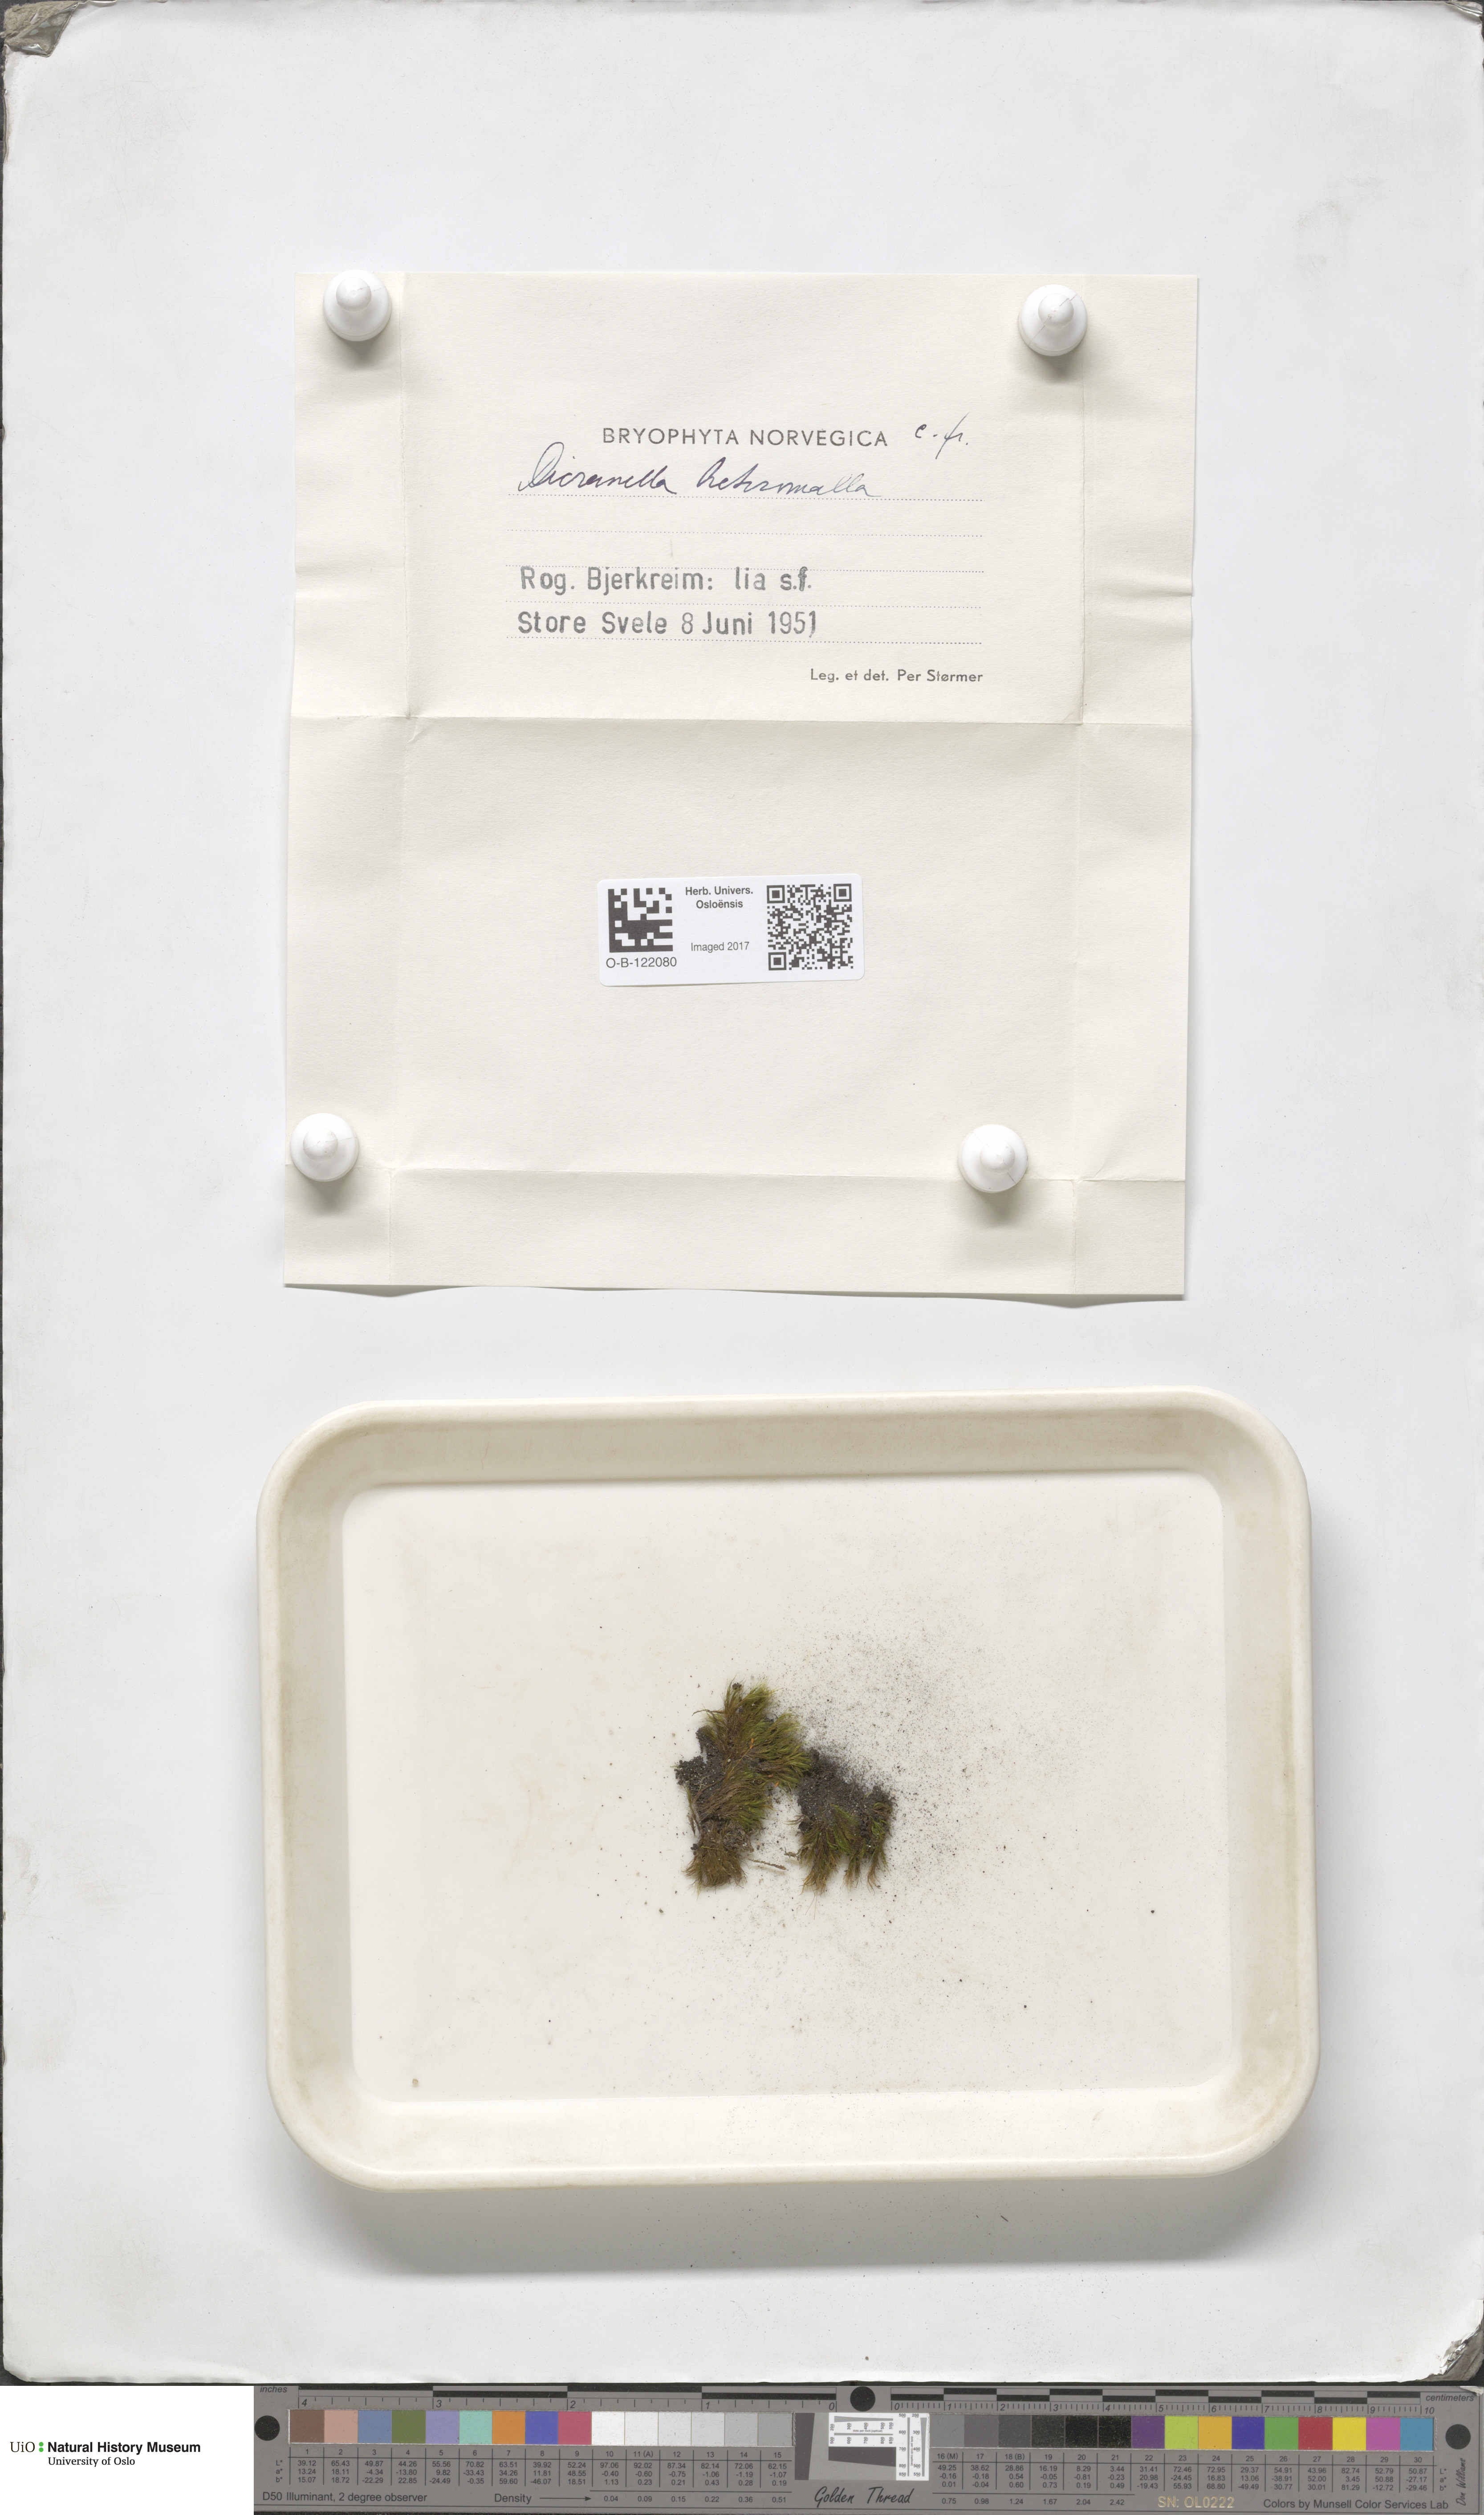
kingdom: Plantae
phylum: Bryophyta
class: Bryopsida
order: Dicranales
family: Dicranellaceae
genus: Dicranella
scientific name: Dicranella heteromalla
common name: Silky forklet moss
